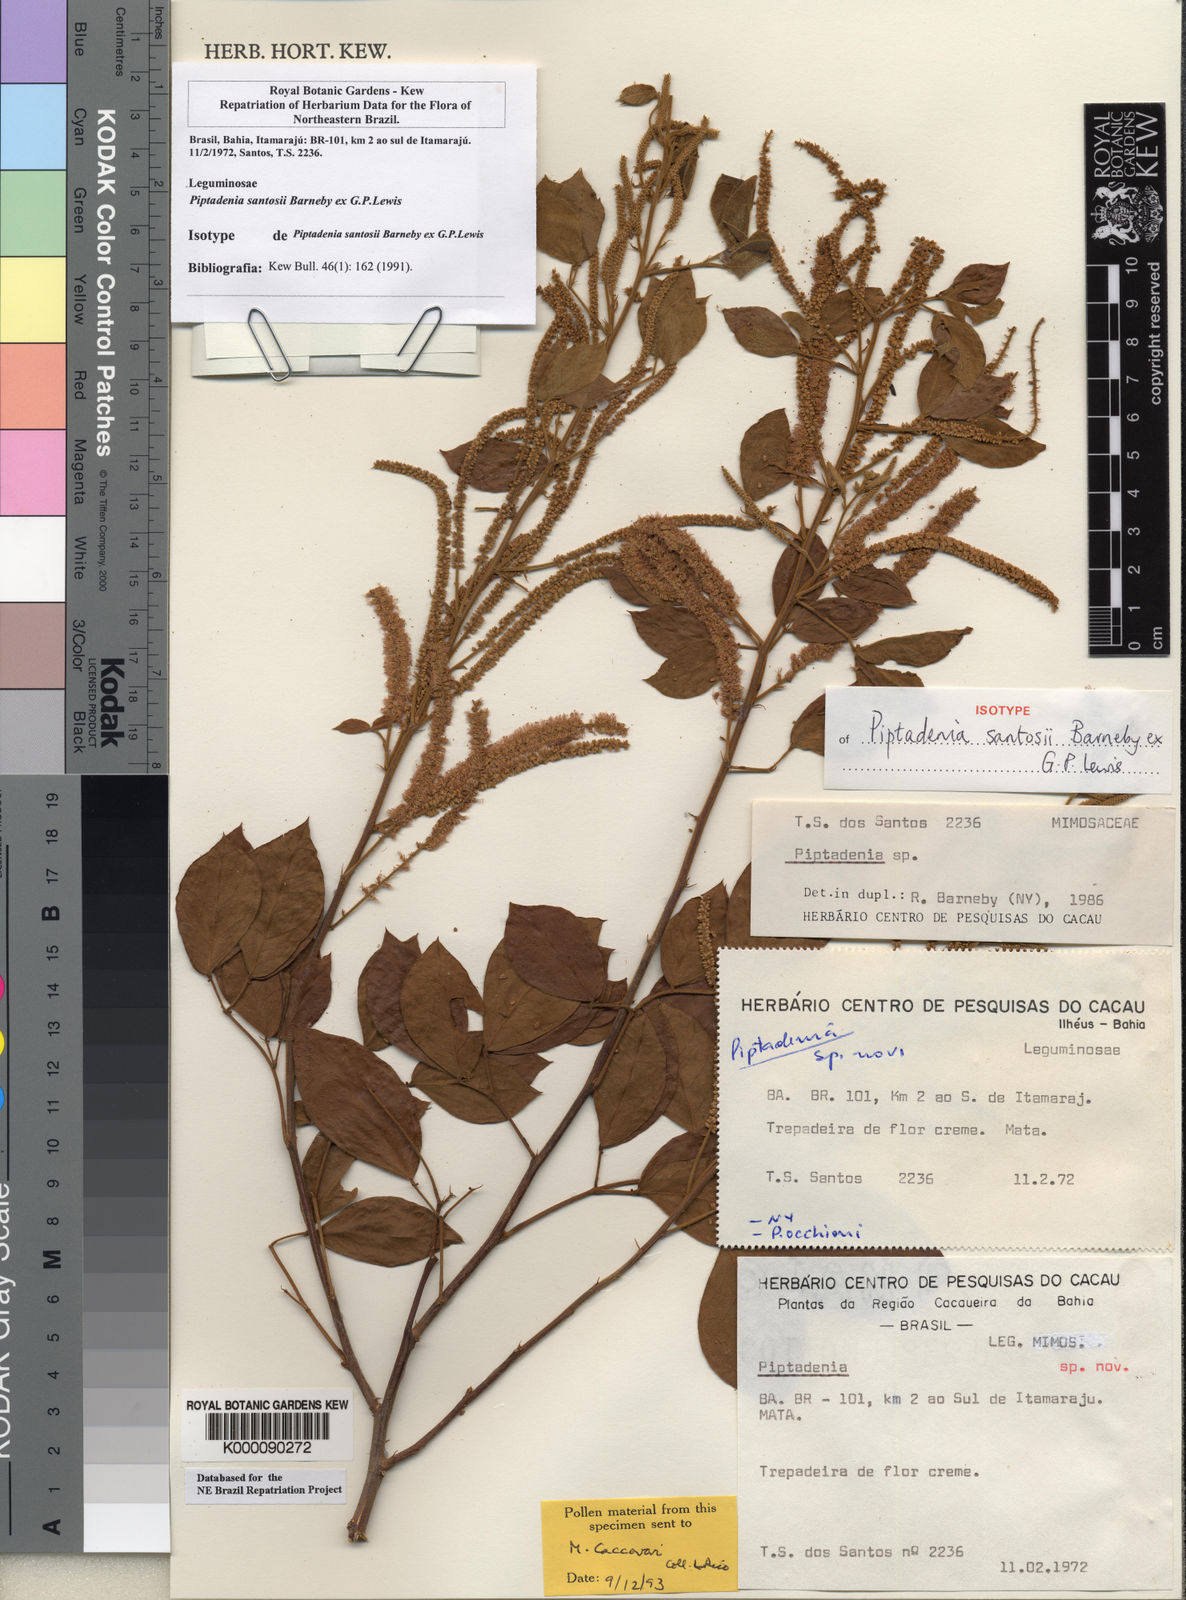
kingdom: Plantae
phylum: Tracheophyta
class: Magnoliopsida
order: Fabales
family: Fabaceae
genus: Piptadenia
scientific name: Piptadenia santosii
